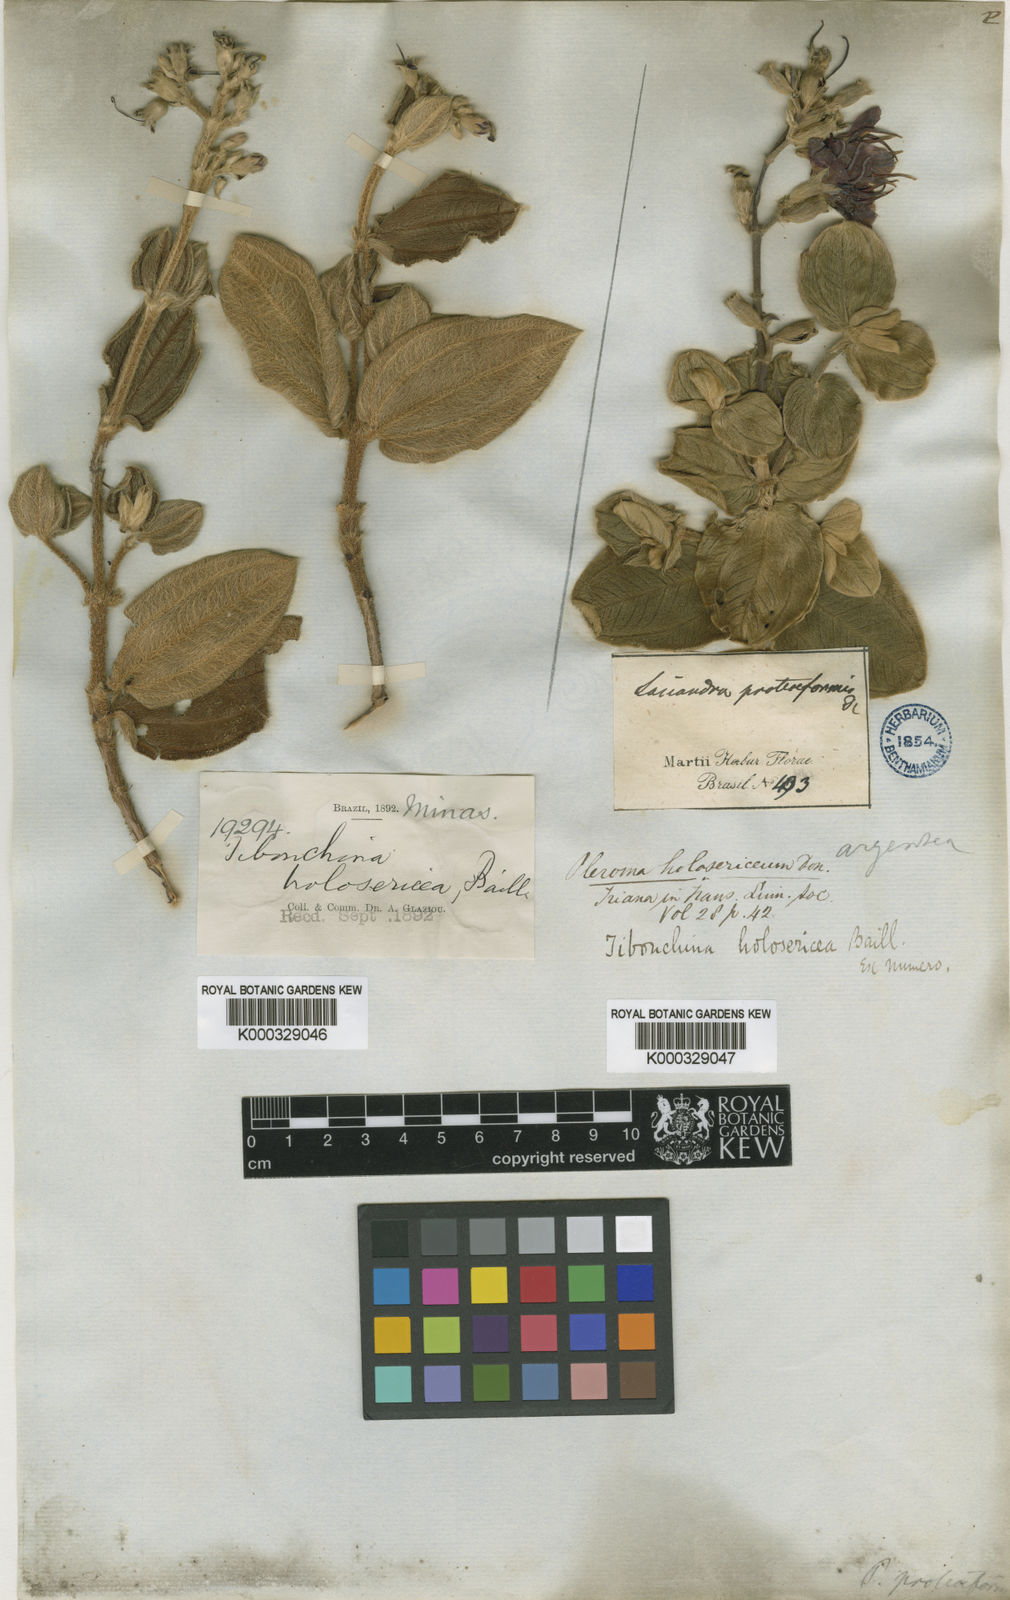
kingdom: Plantae
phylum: Tracheophyta
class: Magnoliopsida
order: Myrtales
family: Melastomataceae
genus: Pleroma
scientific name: Pleroma clavatum
